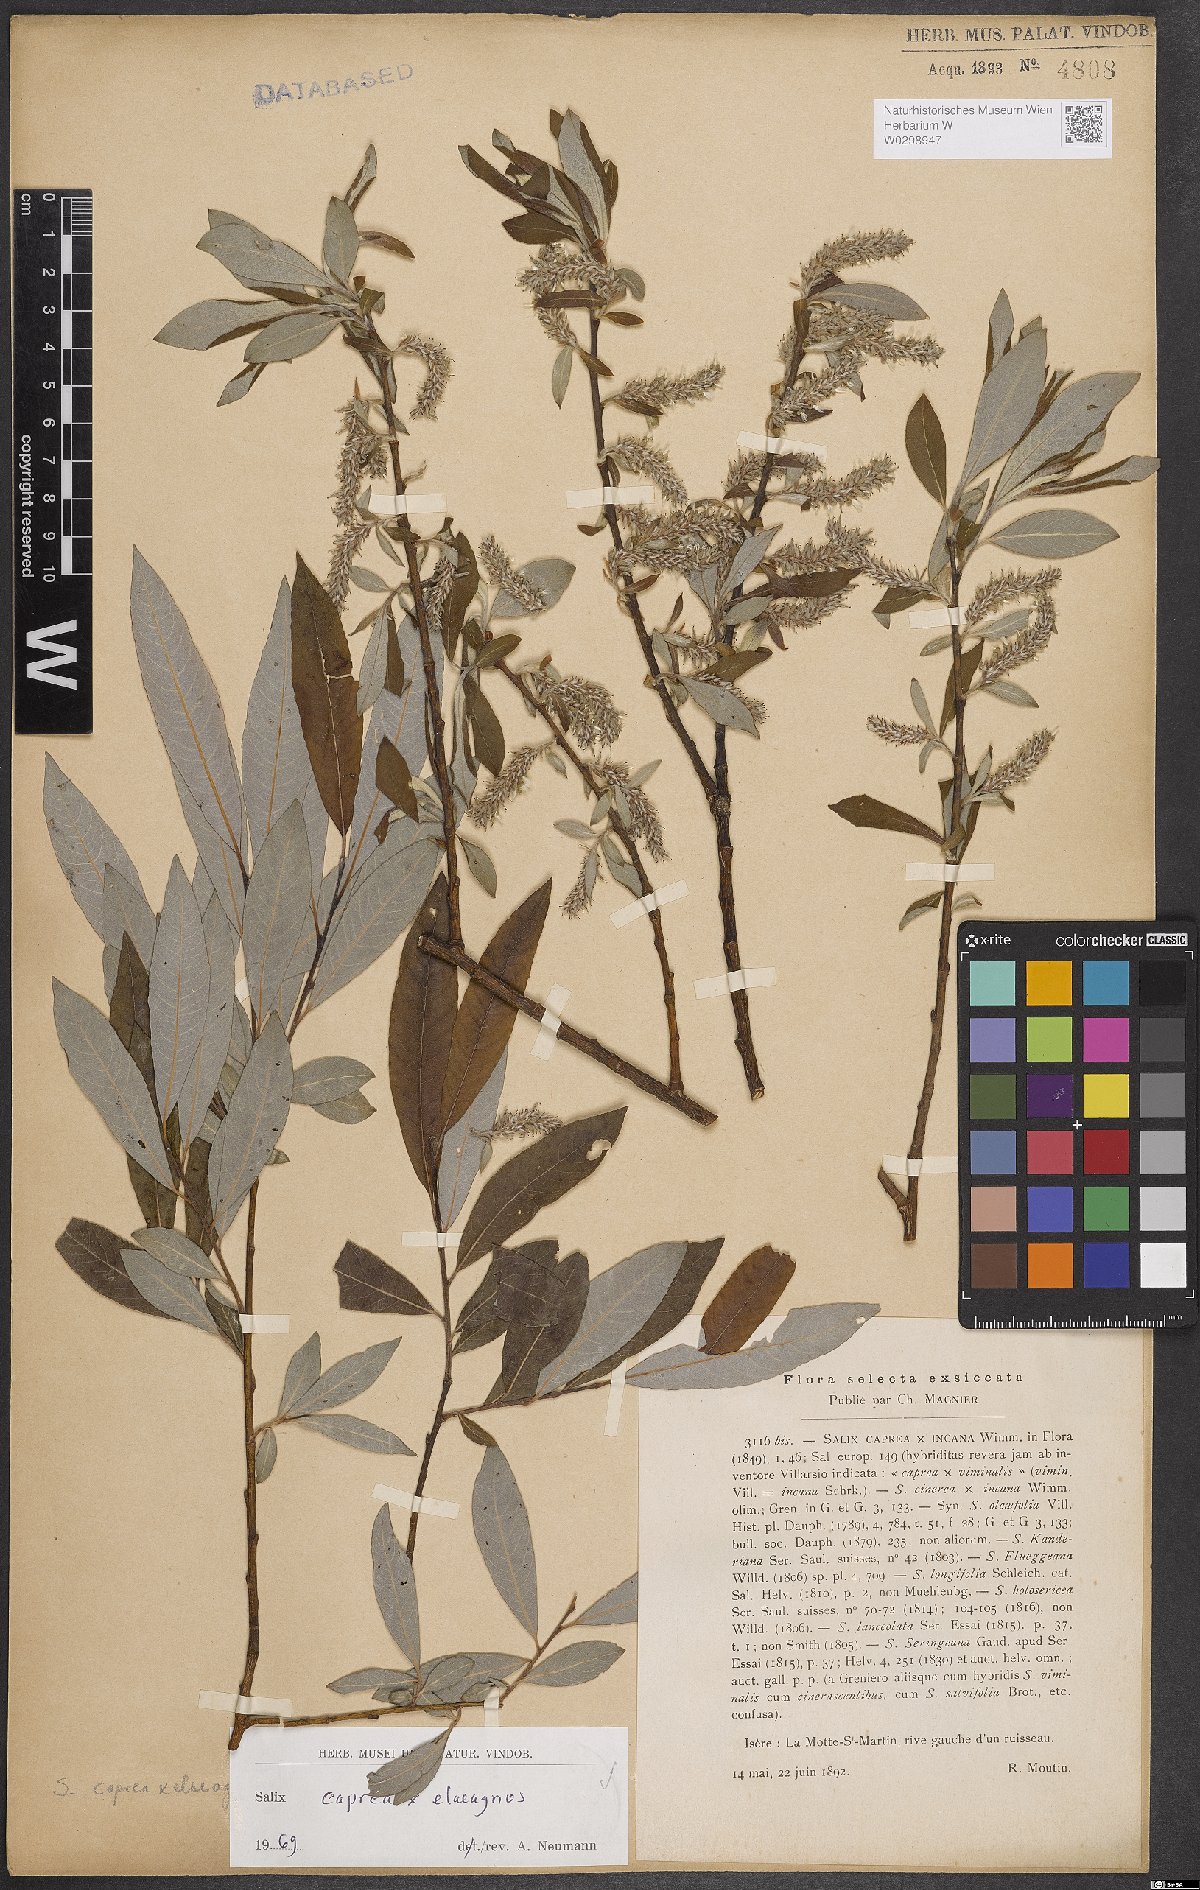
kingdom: Plantae
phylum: Tracheophyta
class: Magnoliopsida
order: Malpighiales
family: Salicaceae
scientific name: Salicaceae
